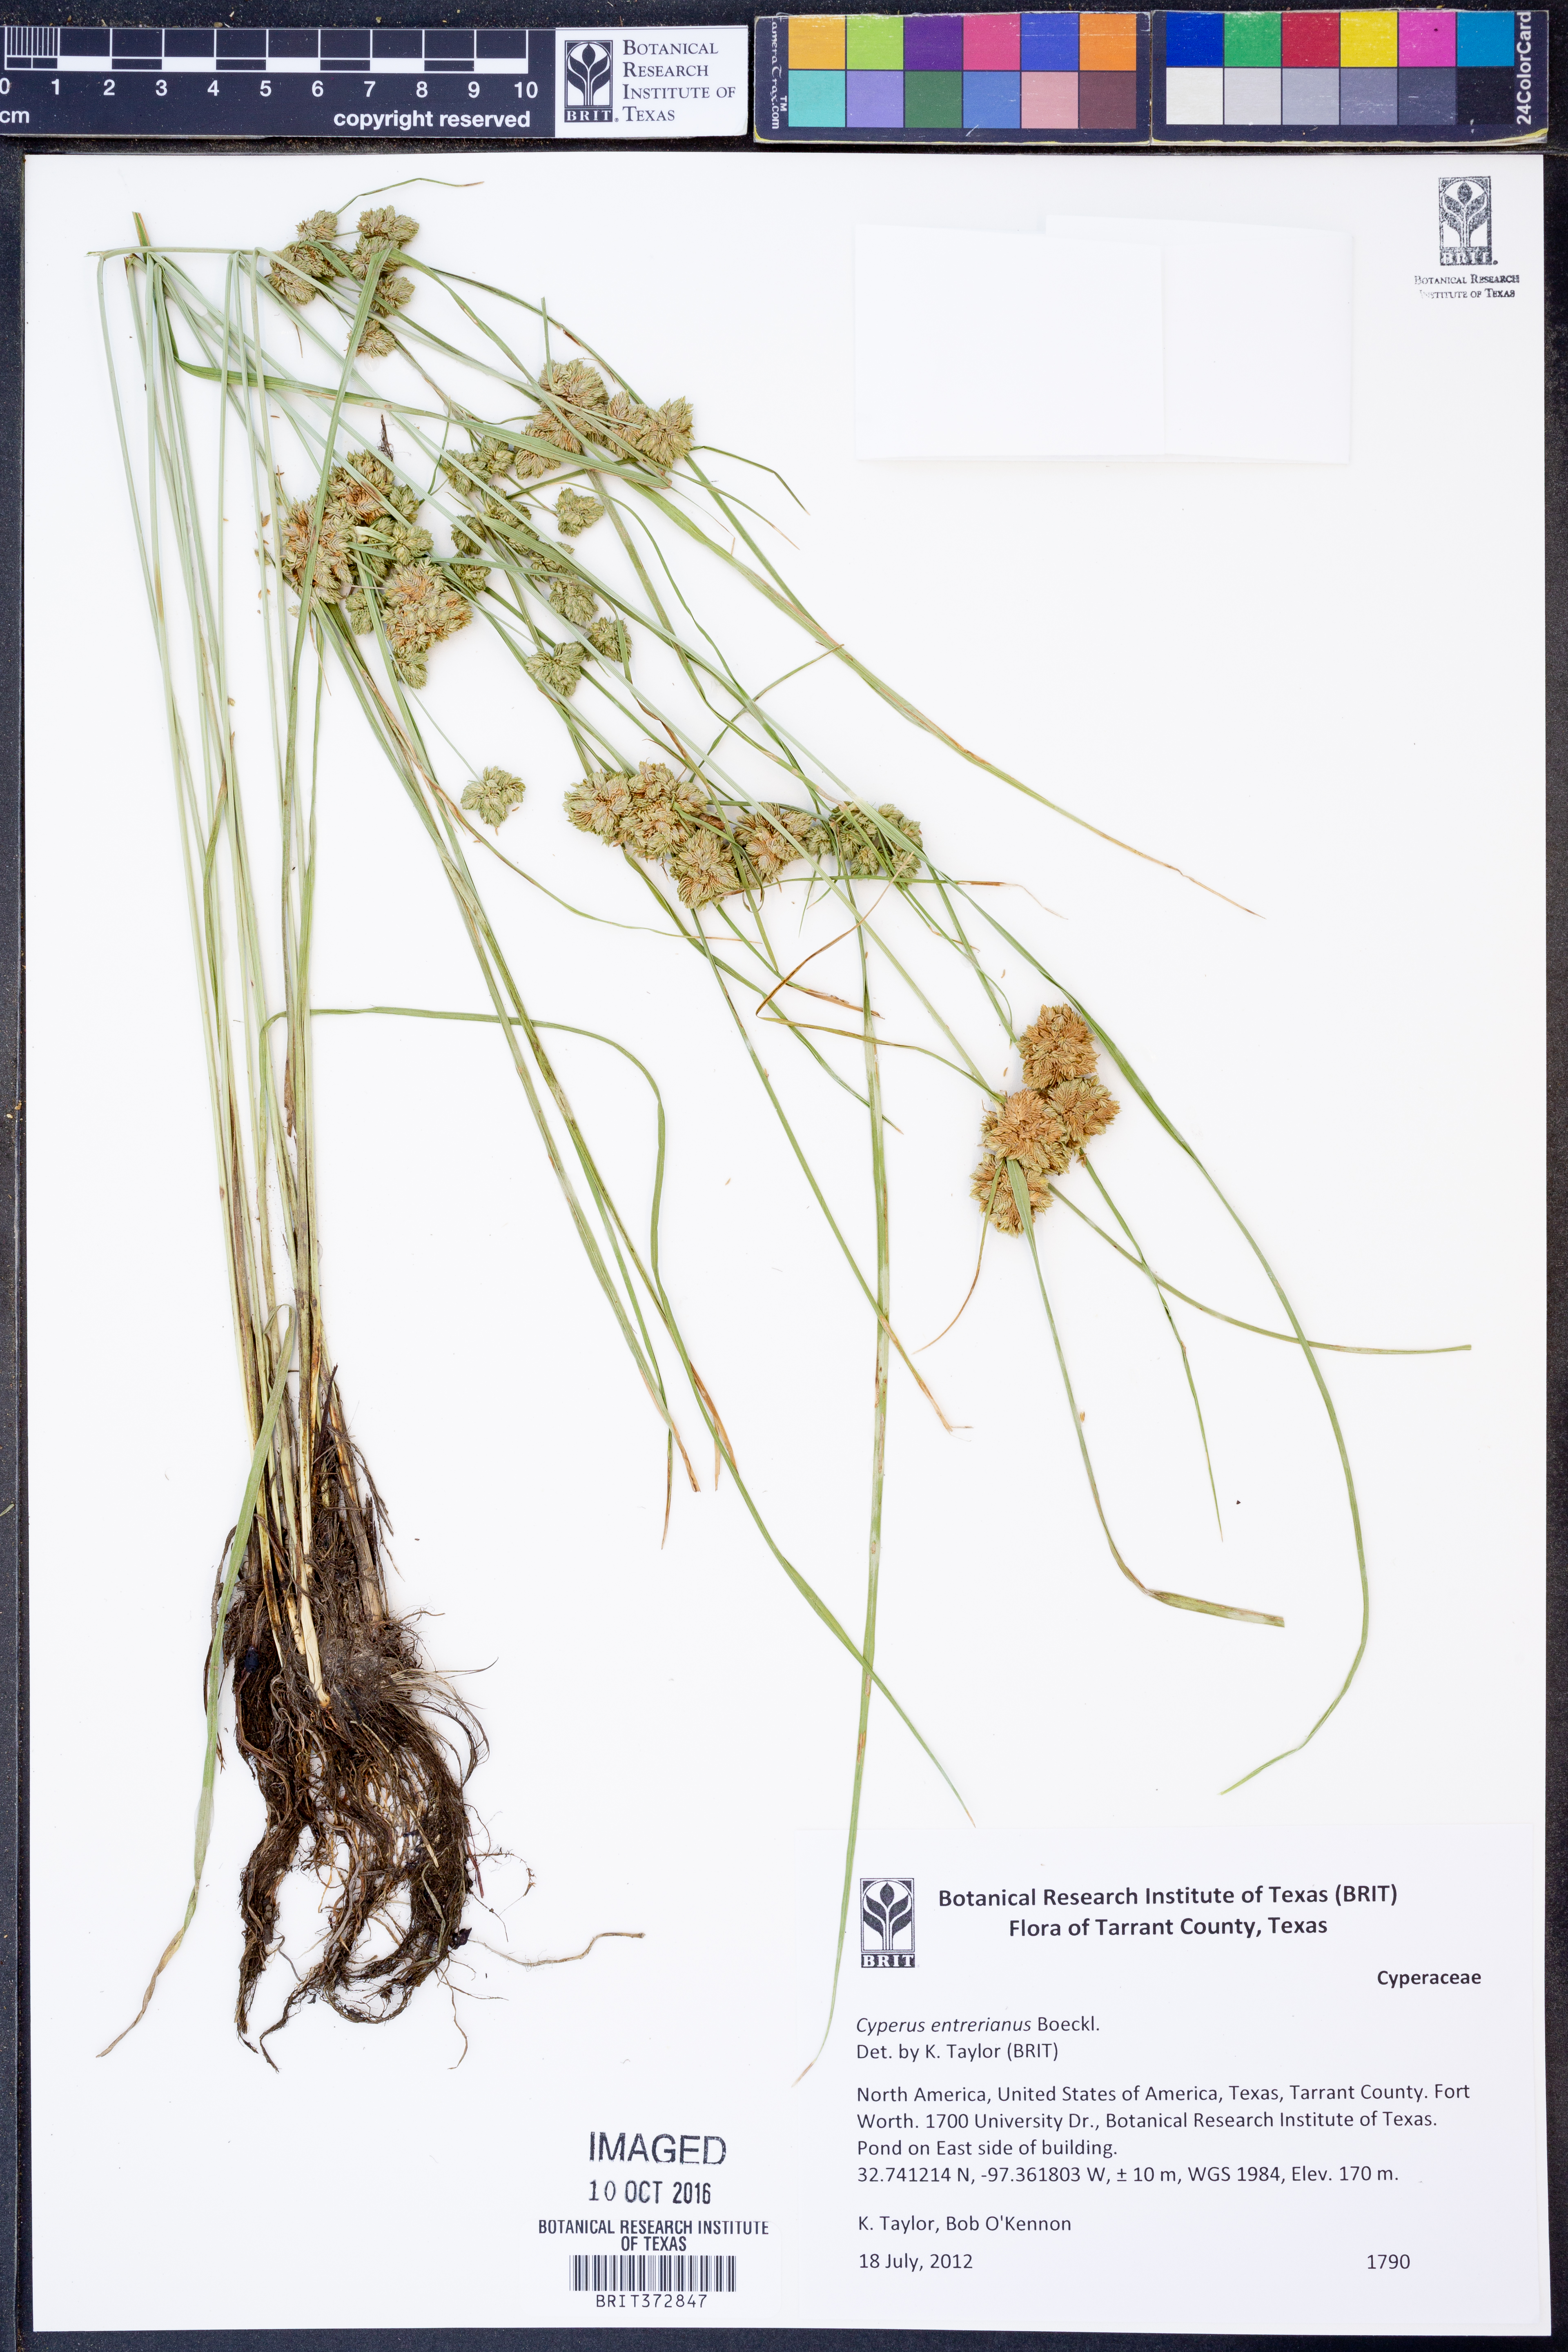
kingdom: Plantae
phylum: Tracheophyta
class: Liliopsida
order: Poales
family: Cyperaceae
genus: Cyperus
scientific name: Cyperus entrerianus
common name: Woodrush flatsedge
